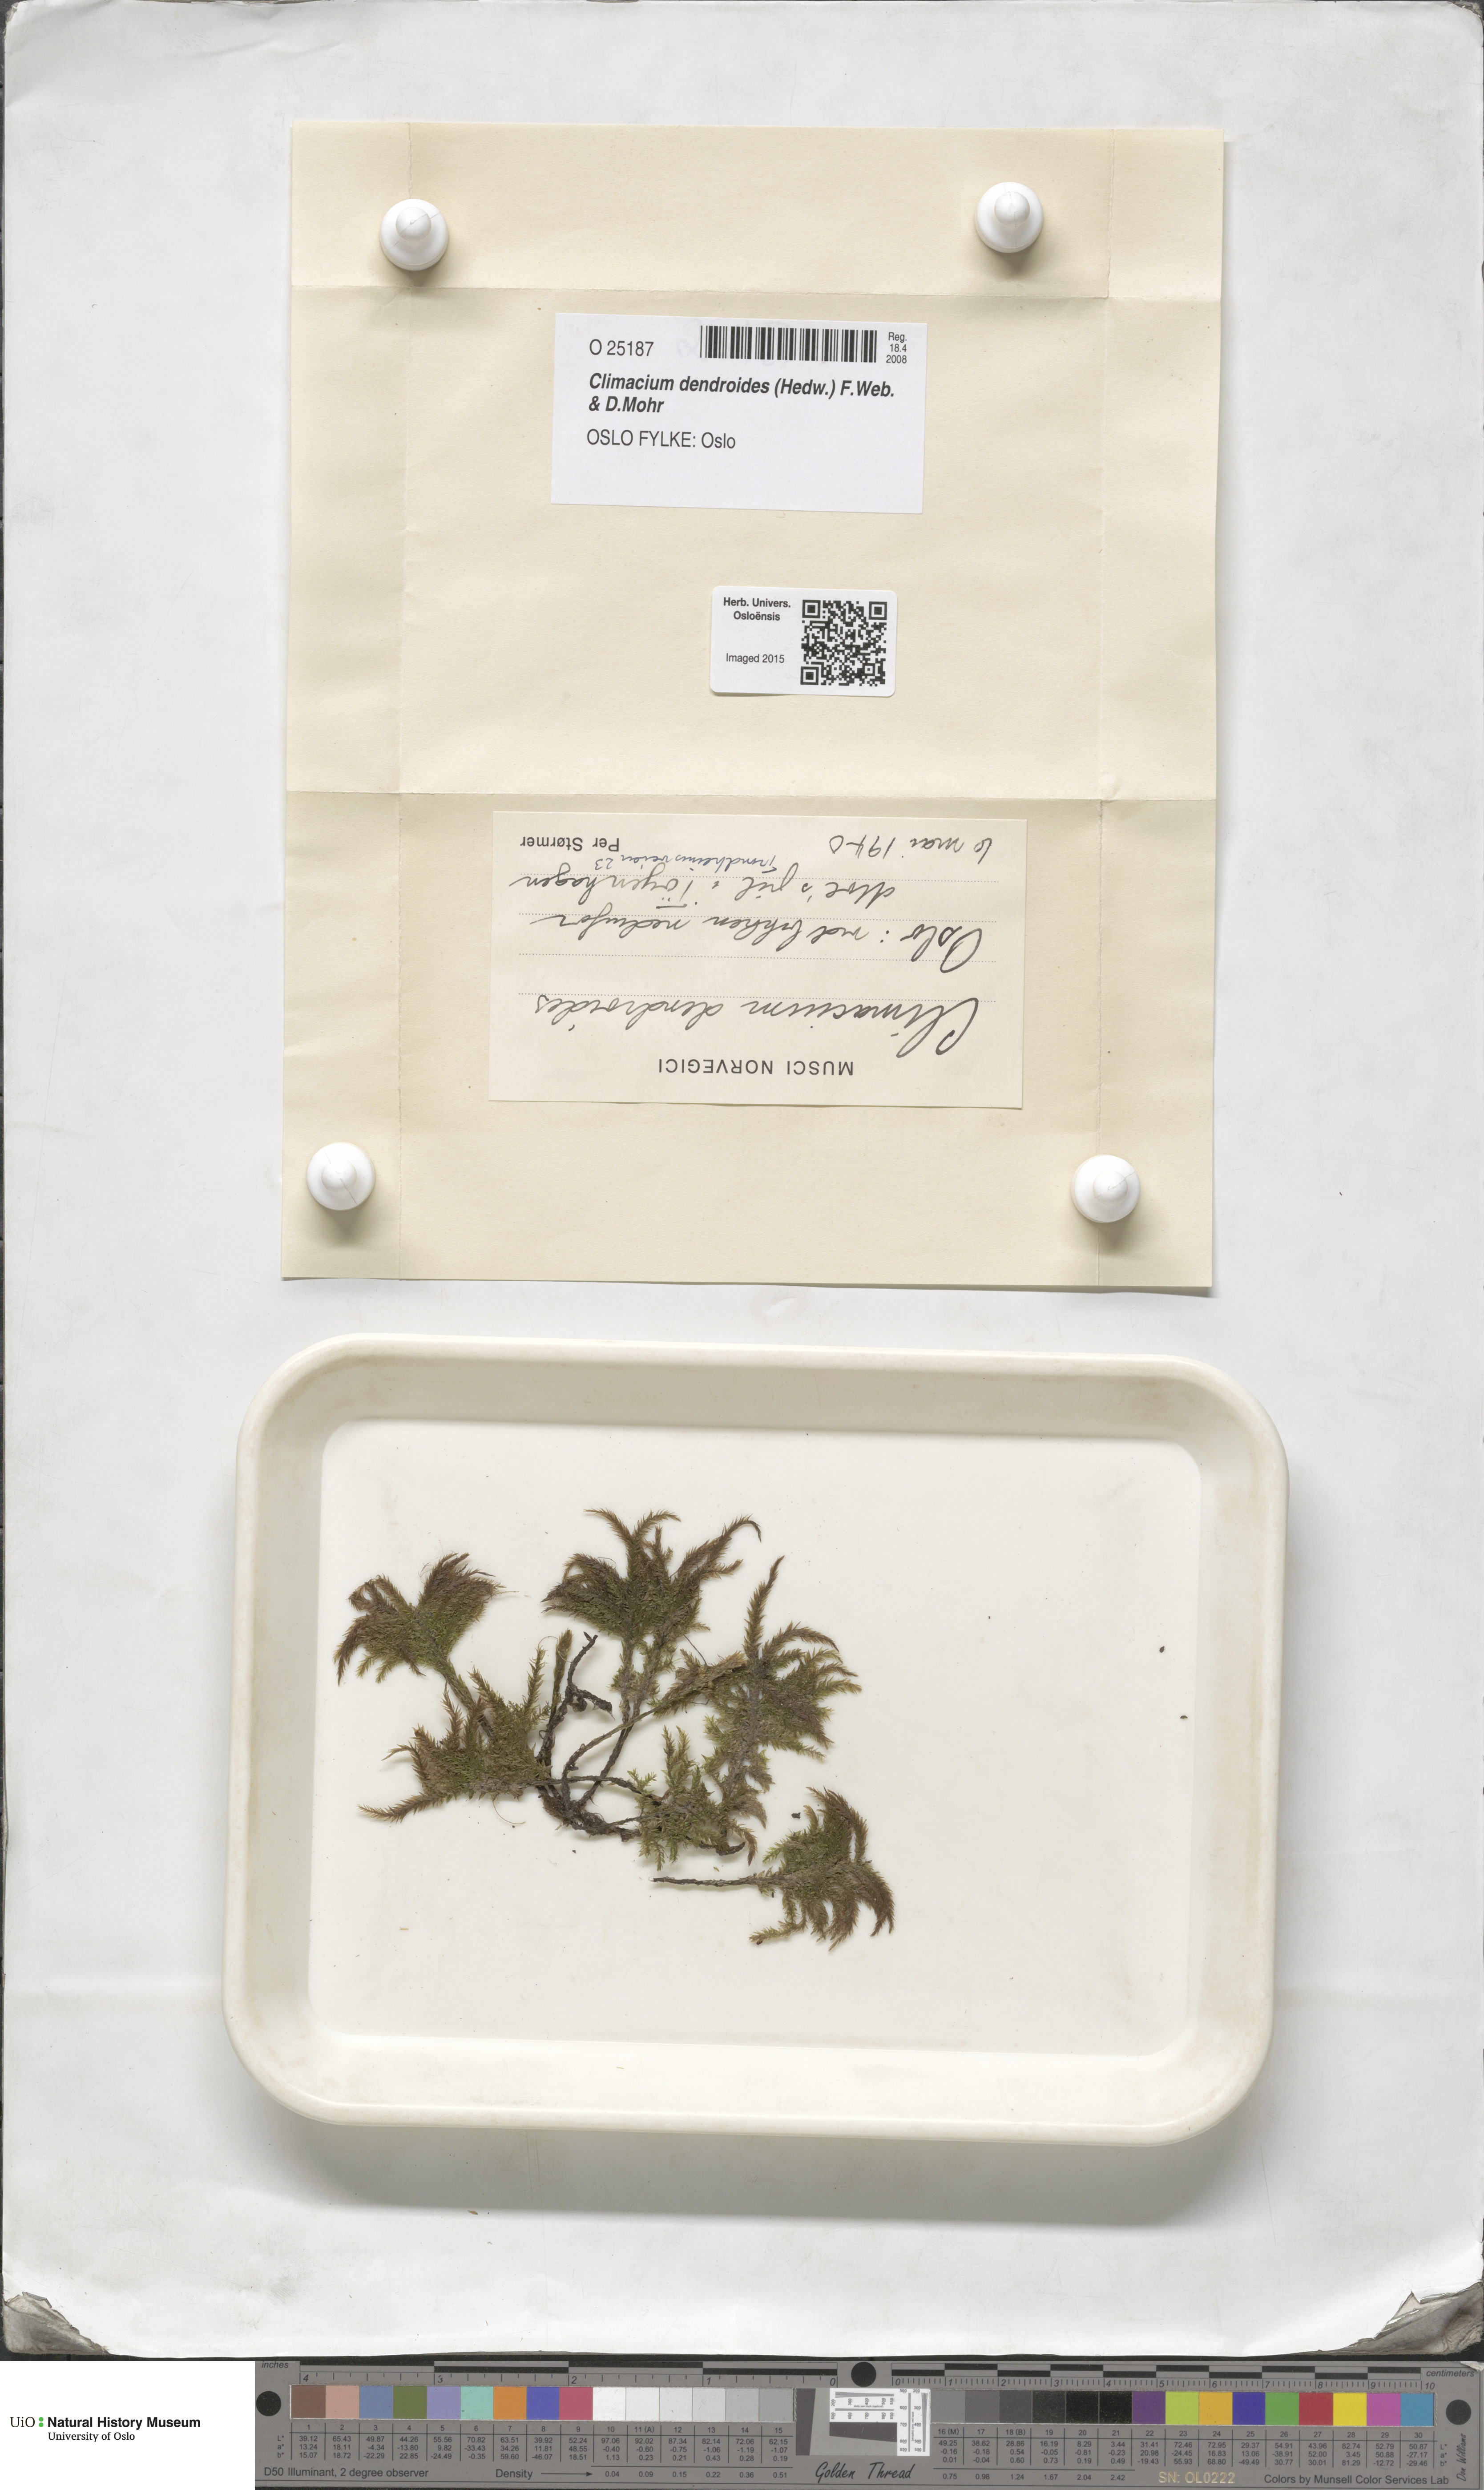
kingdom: Plantae
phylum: Bryophyta
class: Bryopsida
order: Hypnales
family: Climaciaceae
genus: Climacium
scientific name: Climacium dendroides
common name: Northern tree moss
